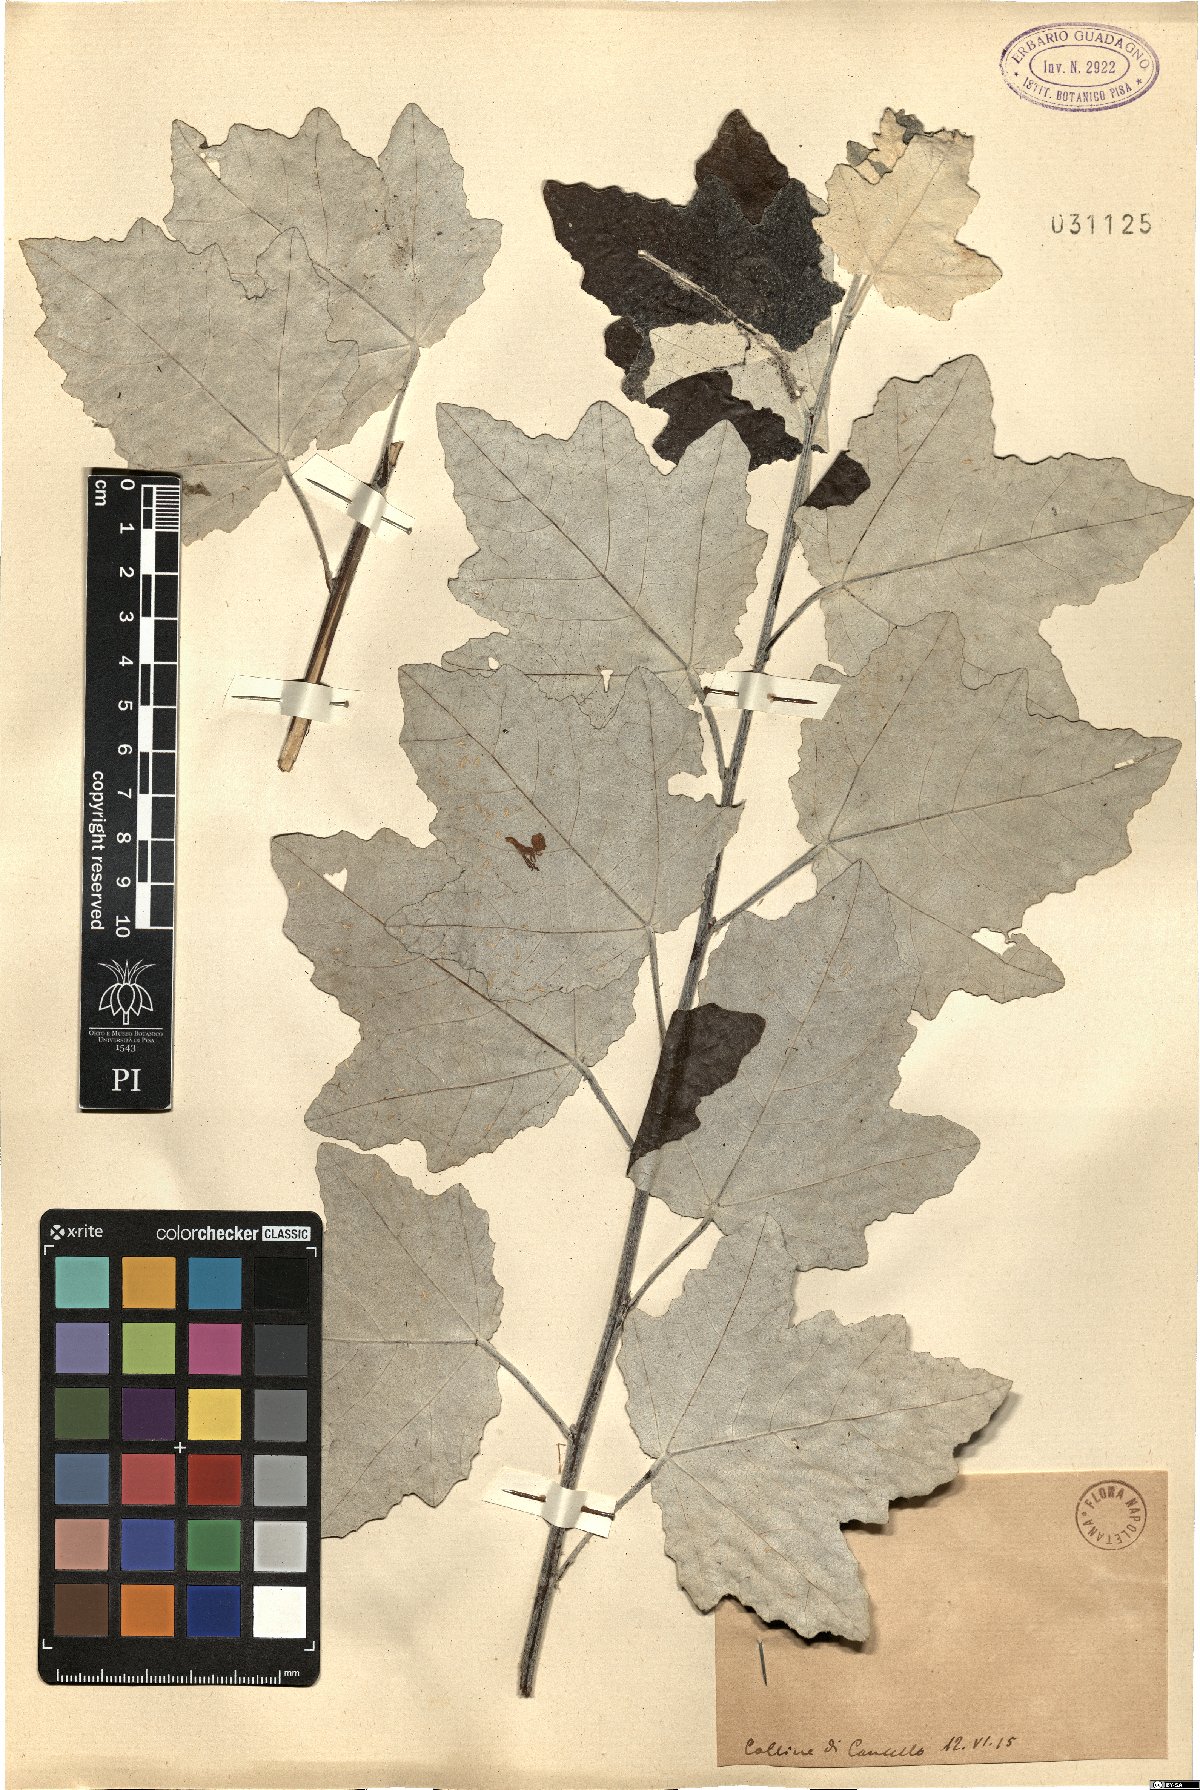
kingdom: Plantae
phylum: Tracheophyta
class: Magnoliopsida
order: Malpighiales
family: Salicaceae
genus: Populus
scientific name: Populus
